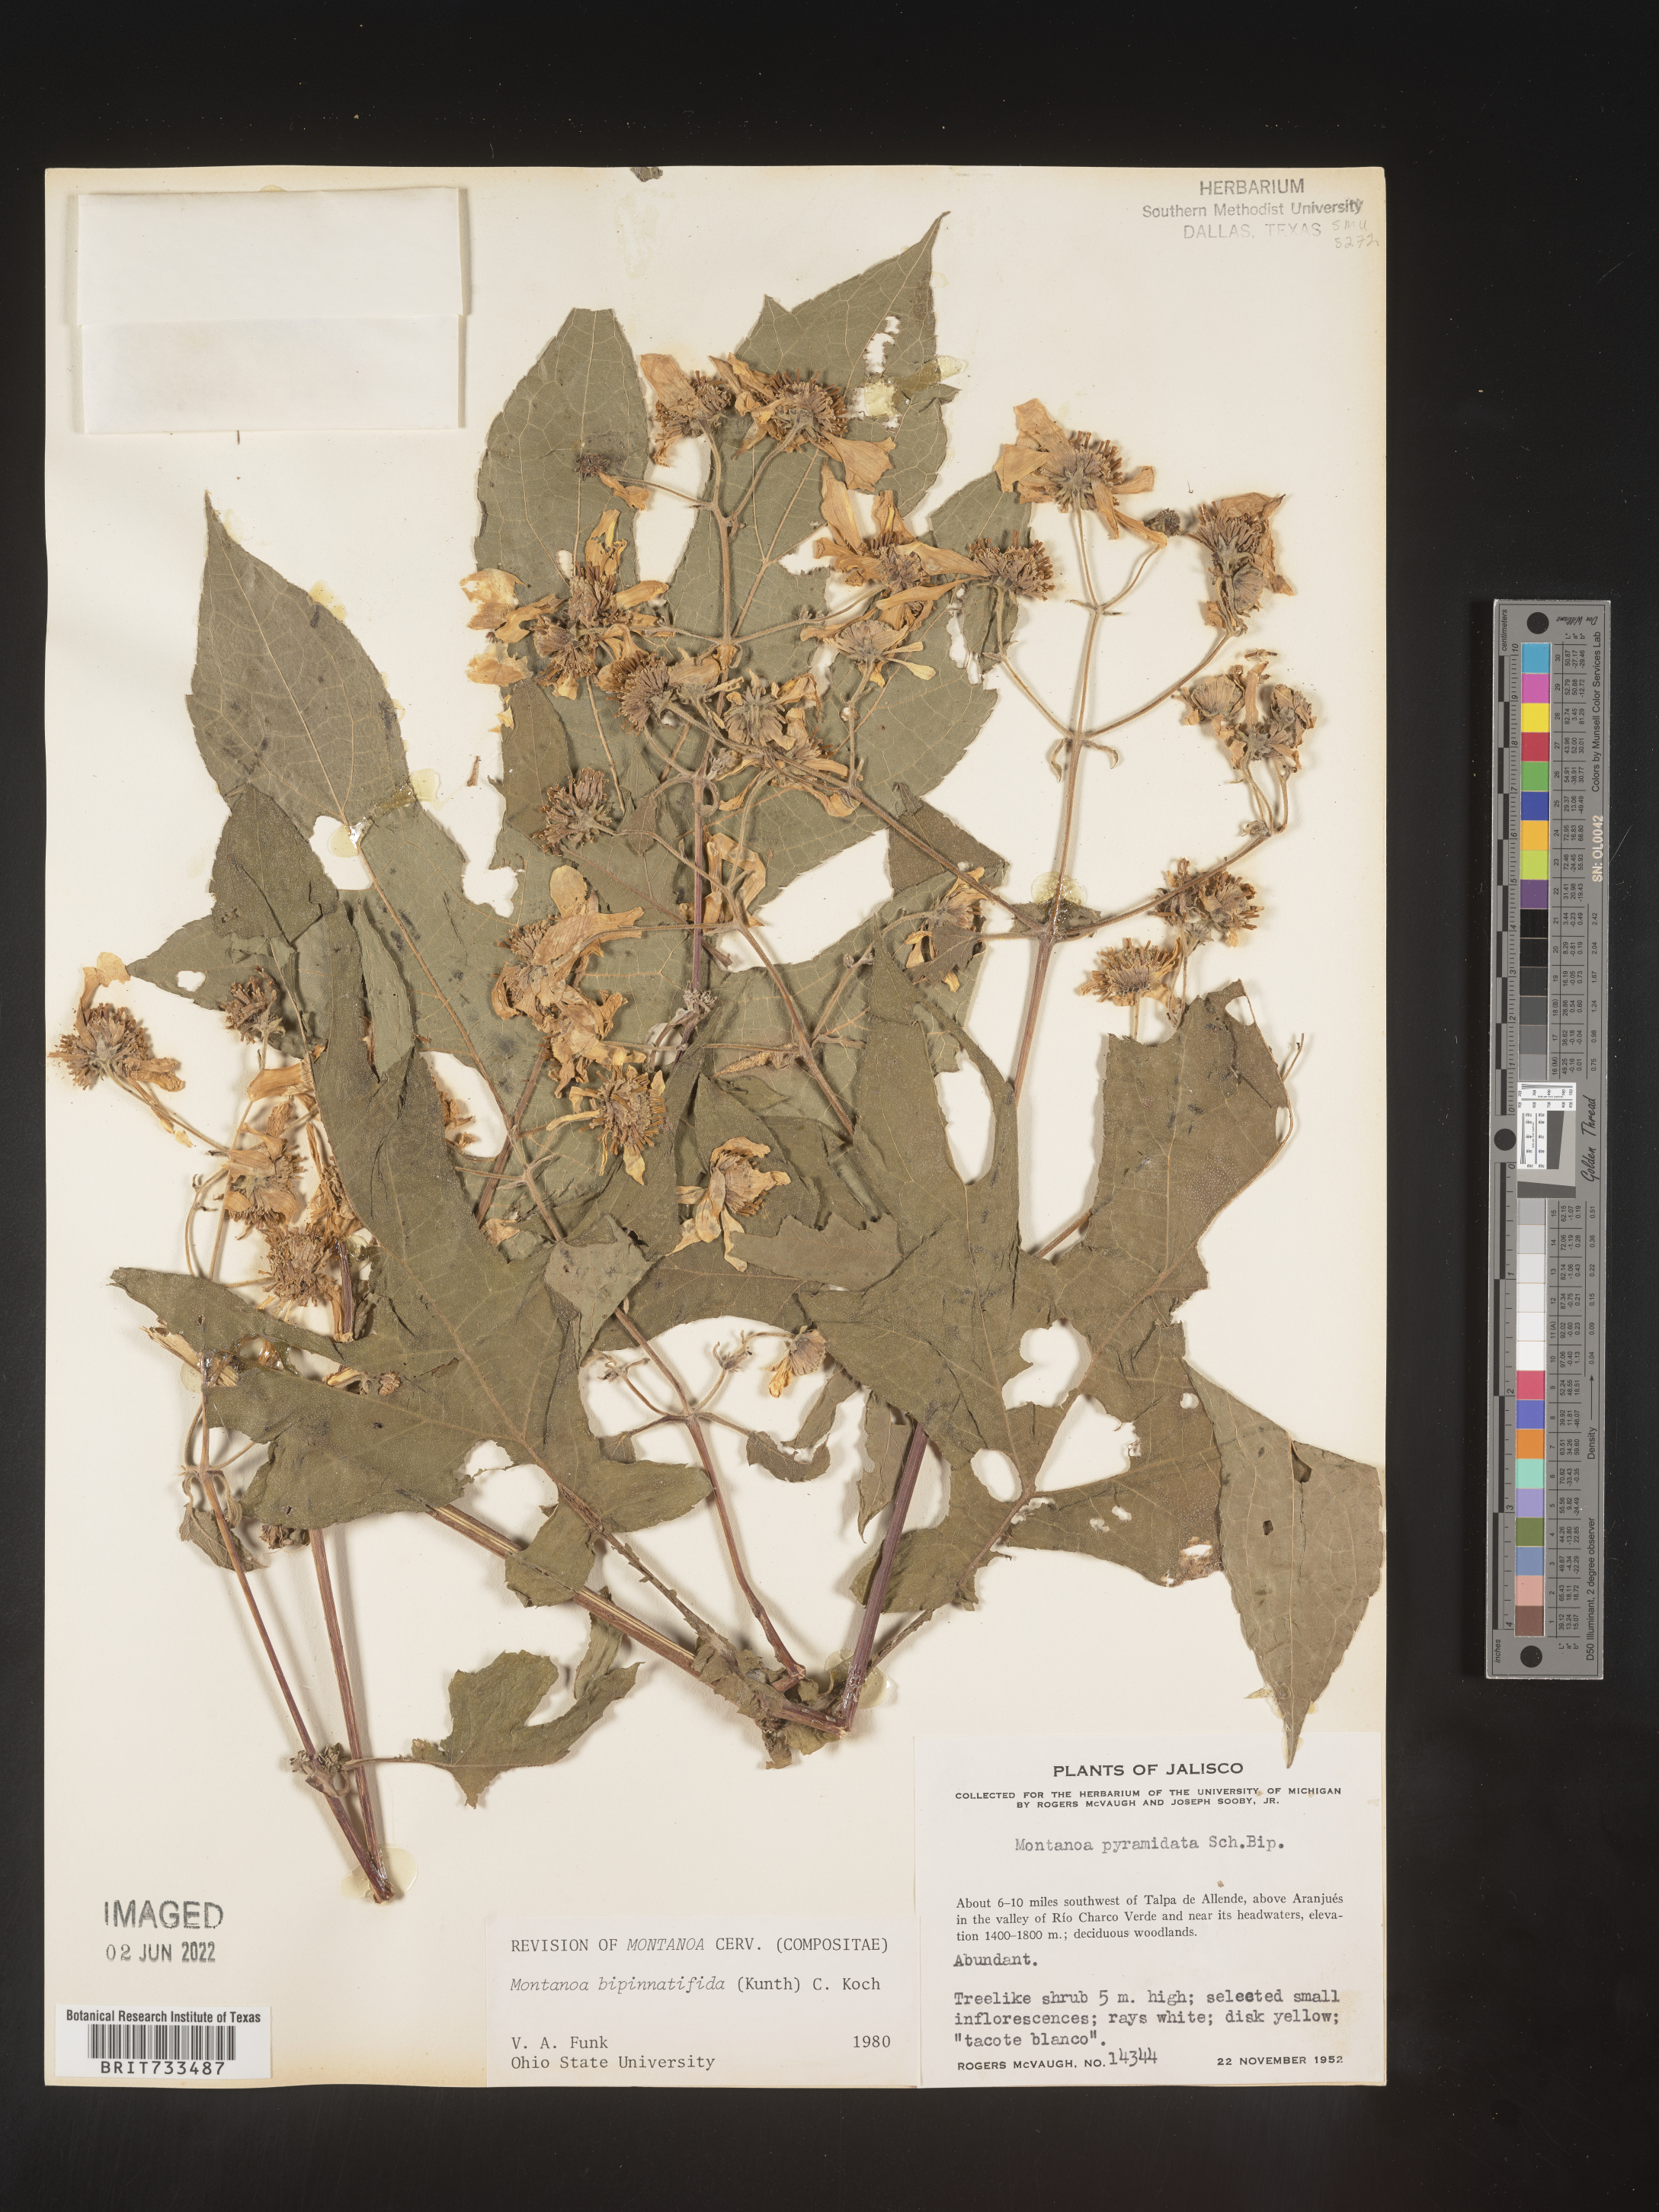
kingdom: Plantae
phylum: Tracheophyta
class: Magnoliopsida
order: Asterales
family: Asteraceae
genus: Montanoa
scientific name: Montanoa
